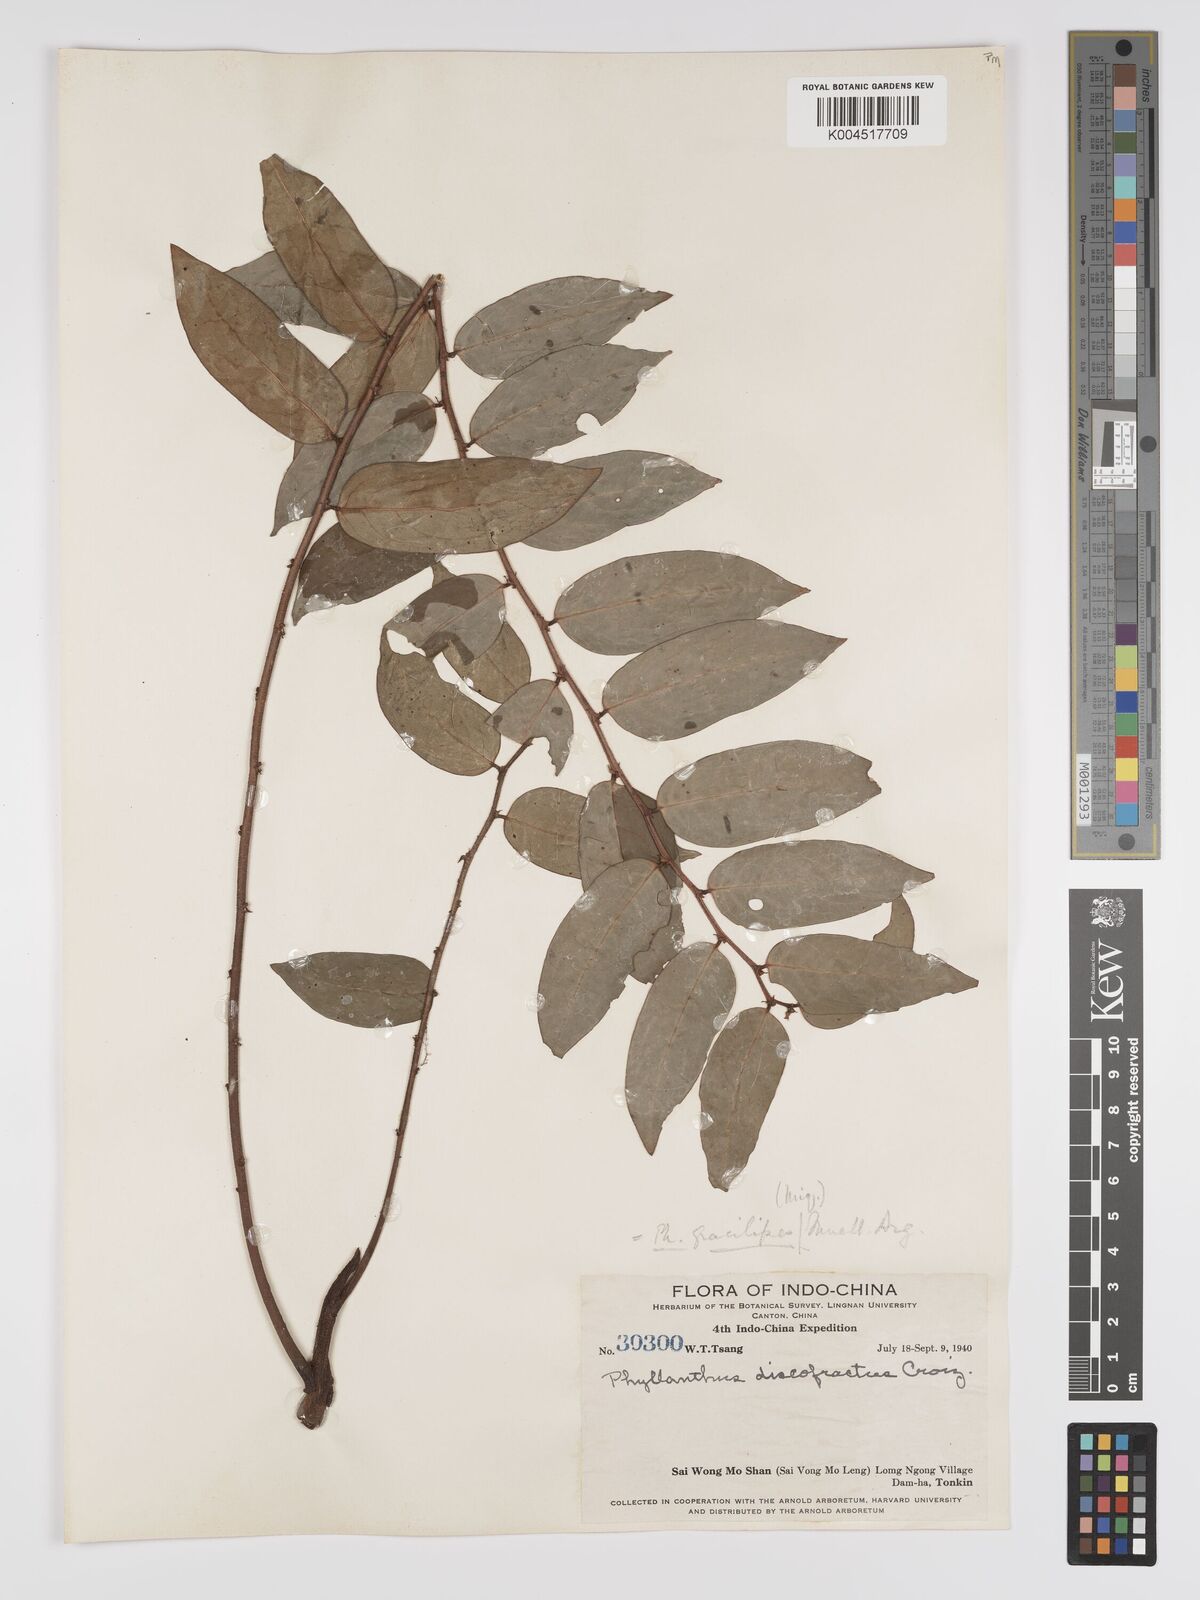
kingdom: Plantae
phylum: Tracheophyta
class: Magnoliopsida
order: Malpighiales
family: Phyllanthaceae
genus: Phyllanthus
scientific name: Phyllanthus
